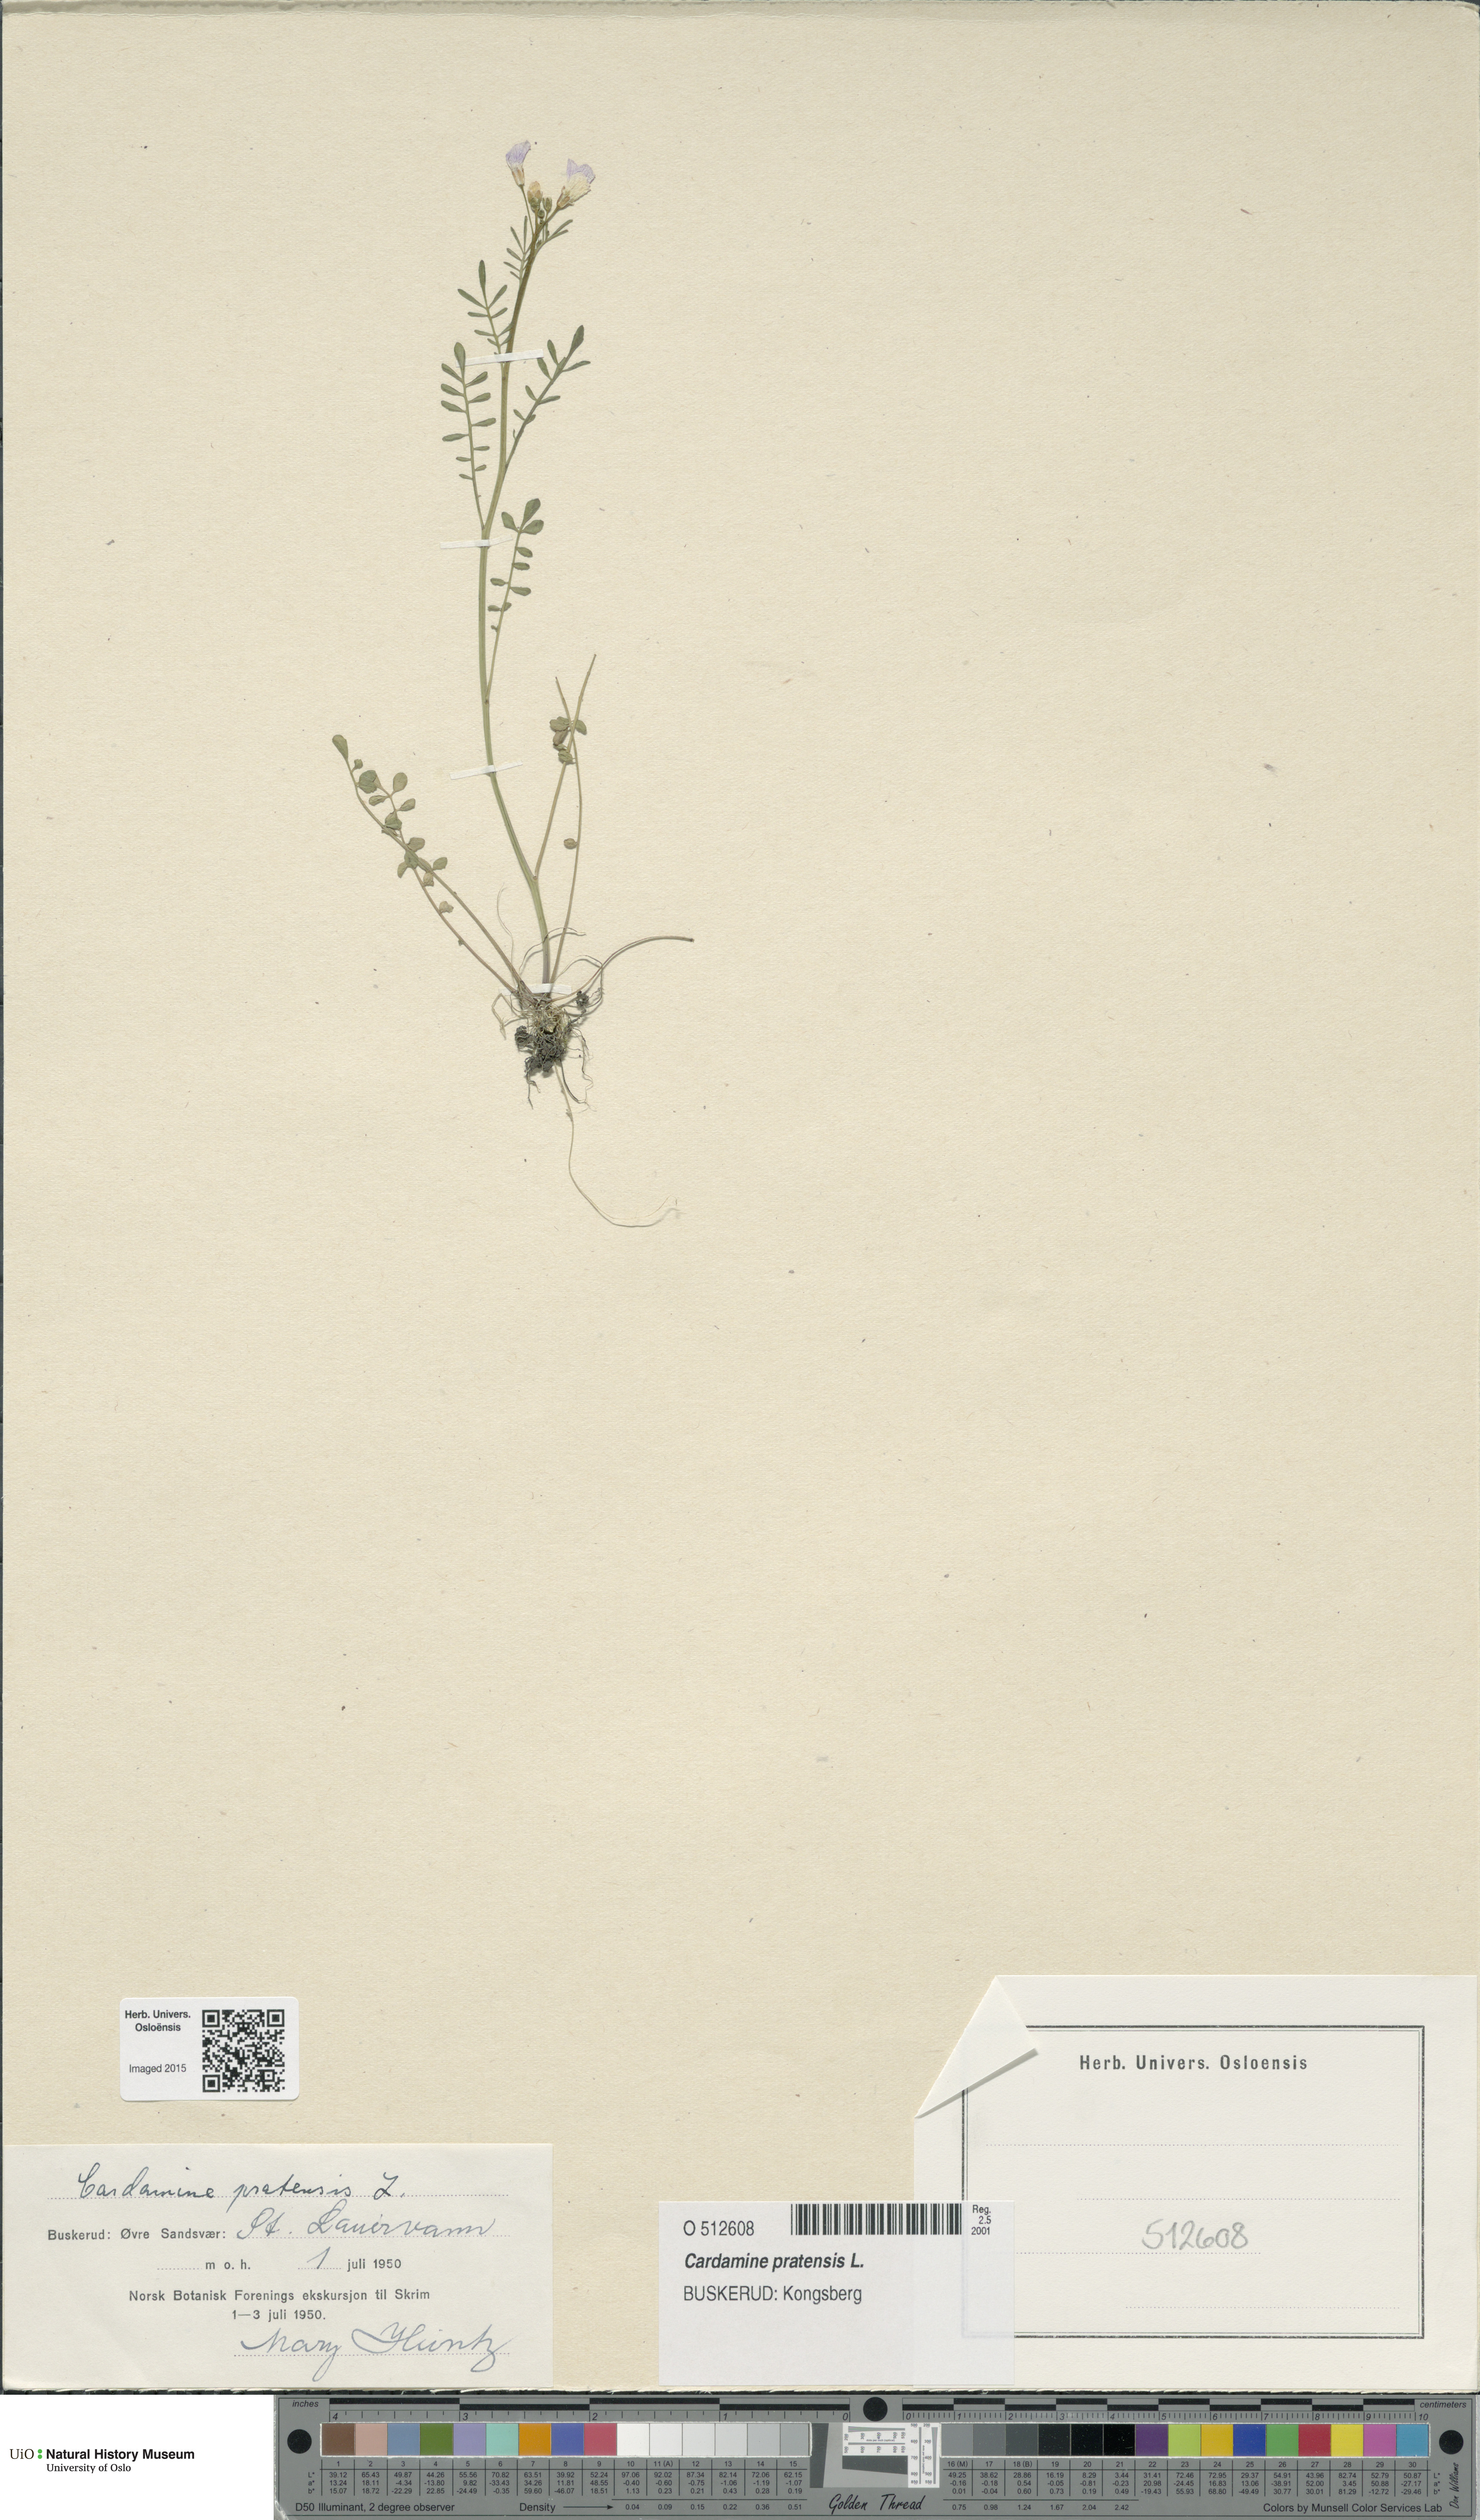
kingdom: Plantae
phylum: Tracheophyta
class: Magnoliopsida
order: Brassicales
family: Brassicaceae
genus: Cardamine
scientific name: Cardamine pratensis
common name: Cuckoo flower
